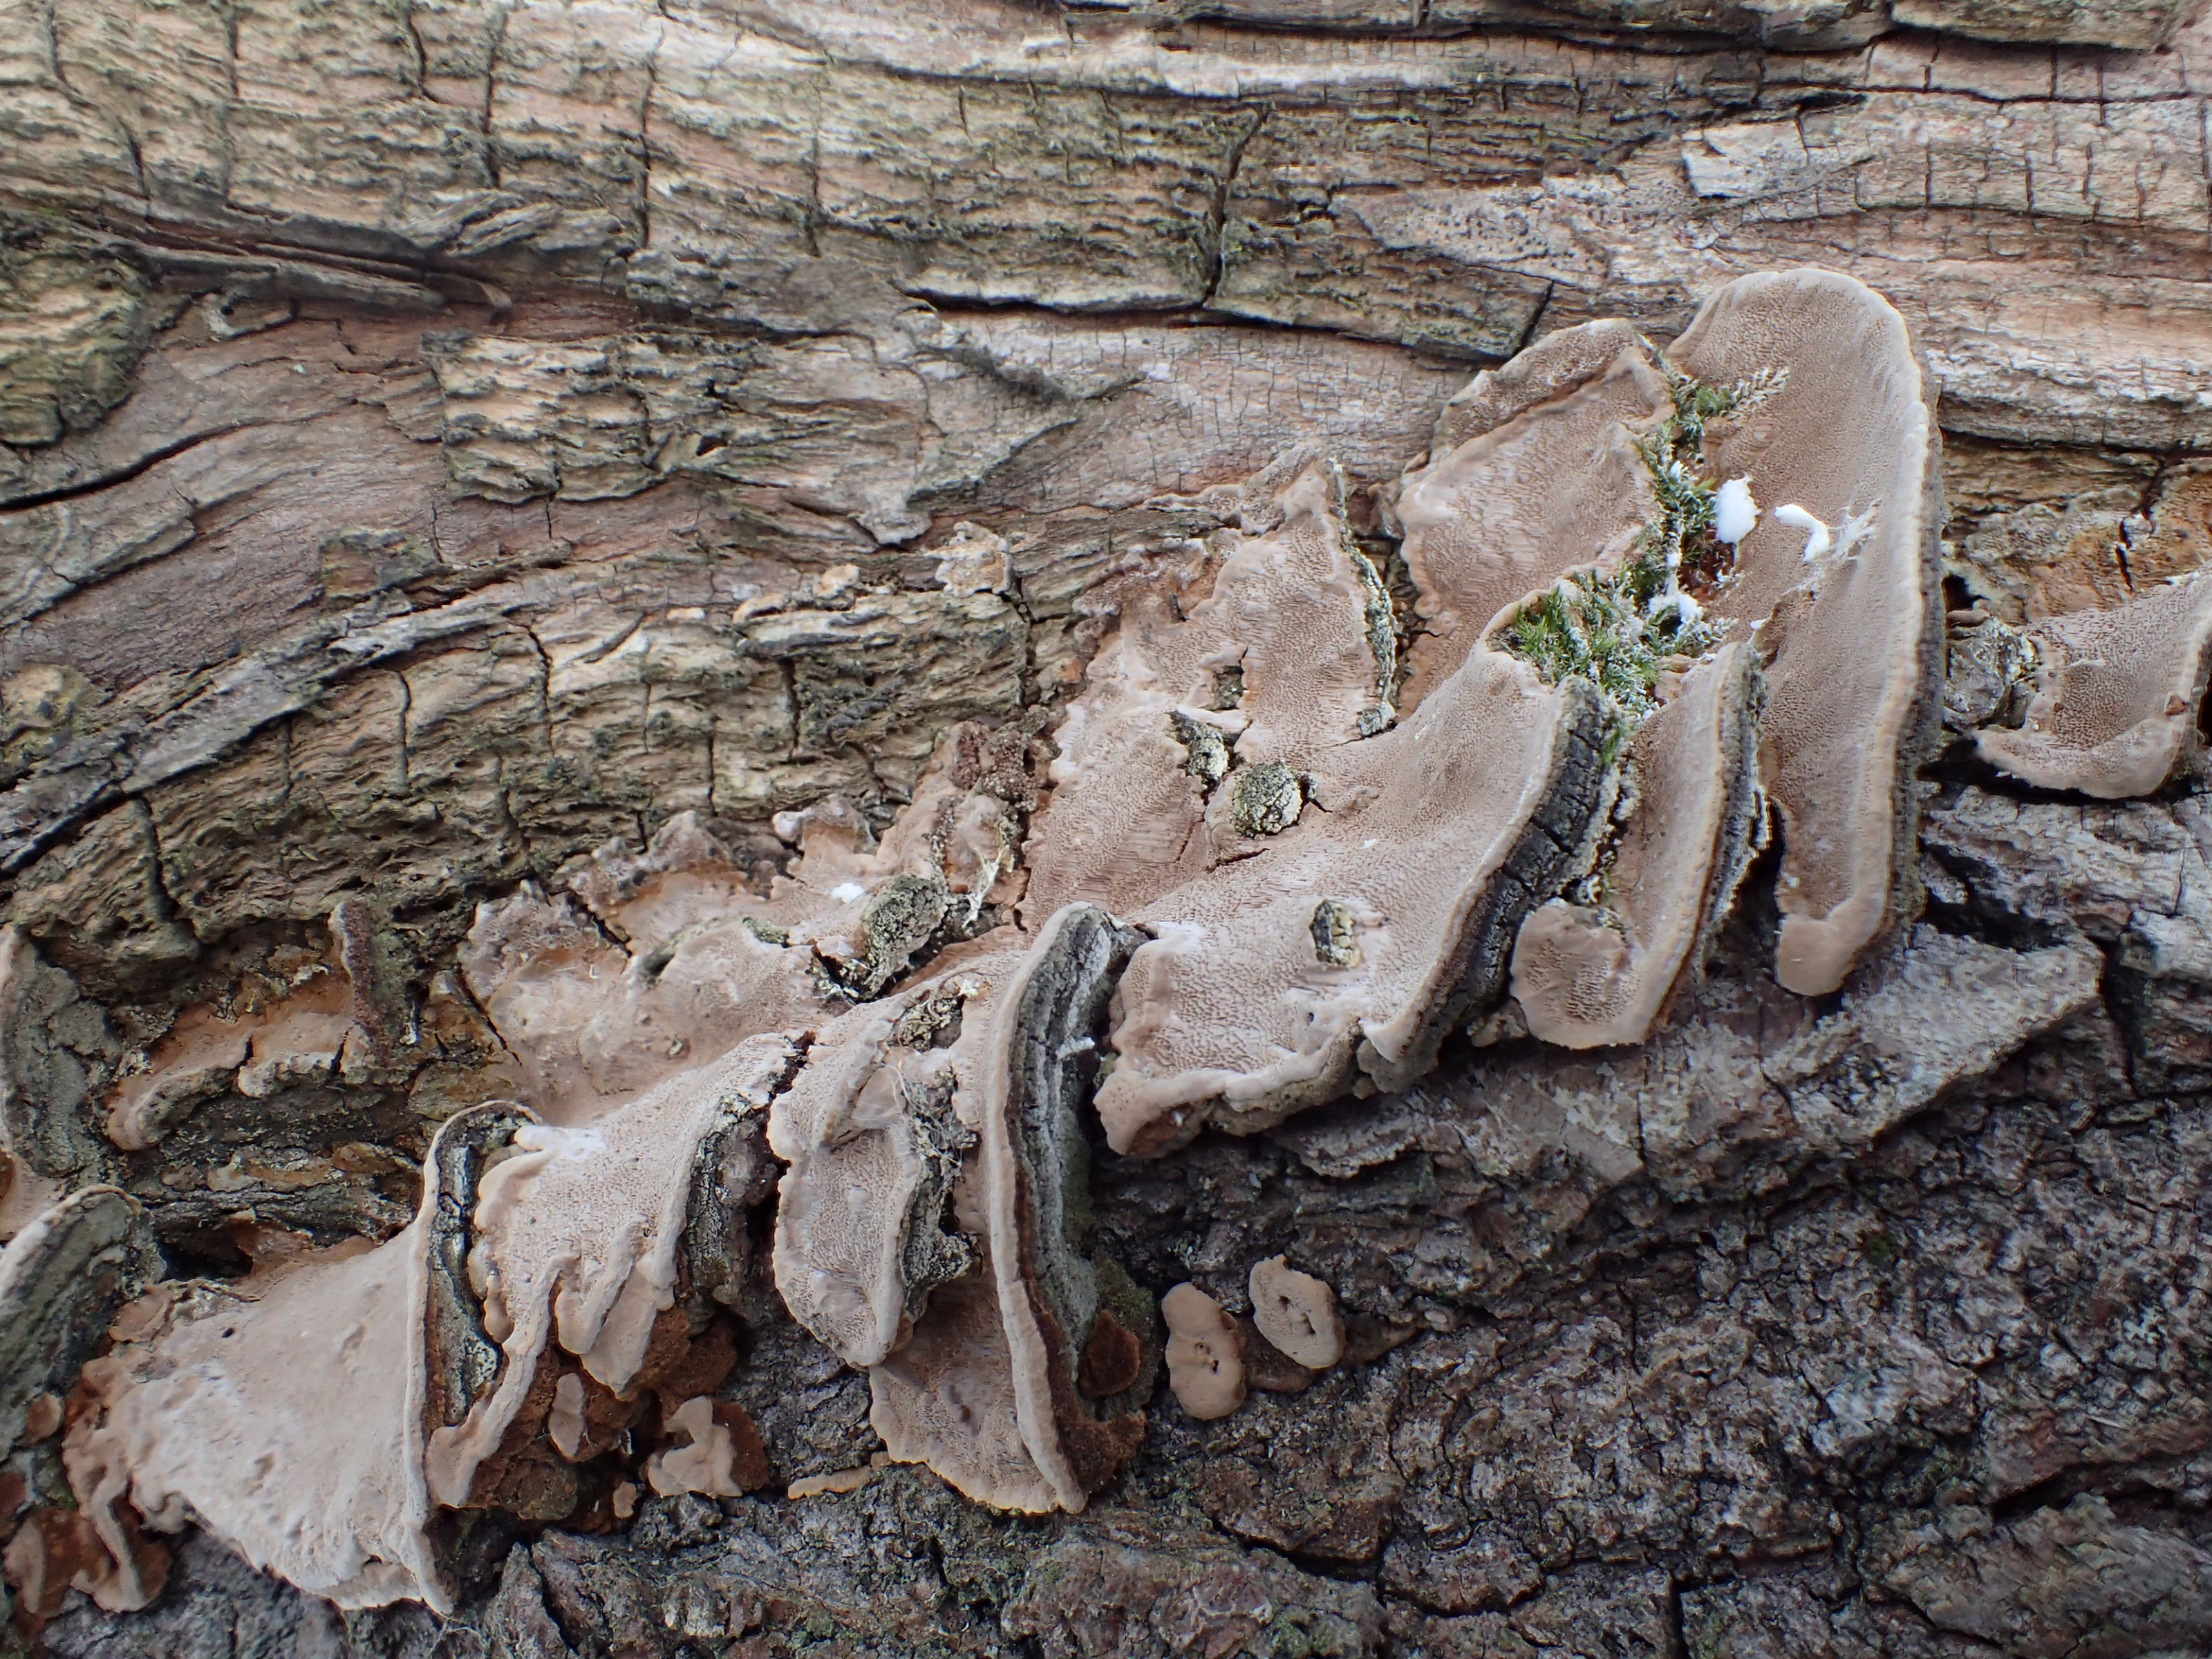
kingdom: Fungi
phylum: Basidiomycota
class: Agaricomycetes
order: Hymenochaetales
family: Hymenochaetaceae
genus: Phellinopsis
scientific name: Phellinopsis conchata
